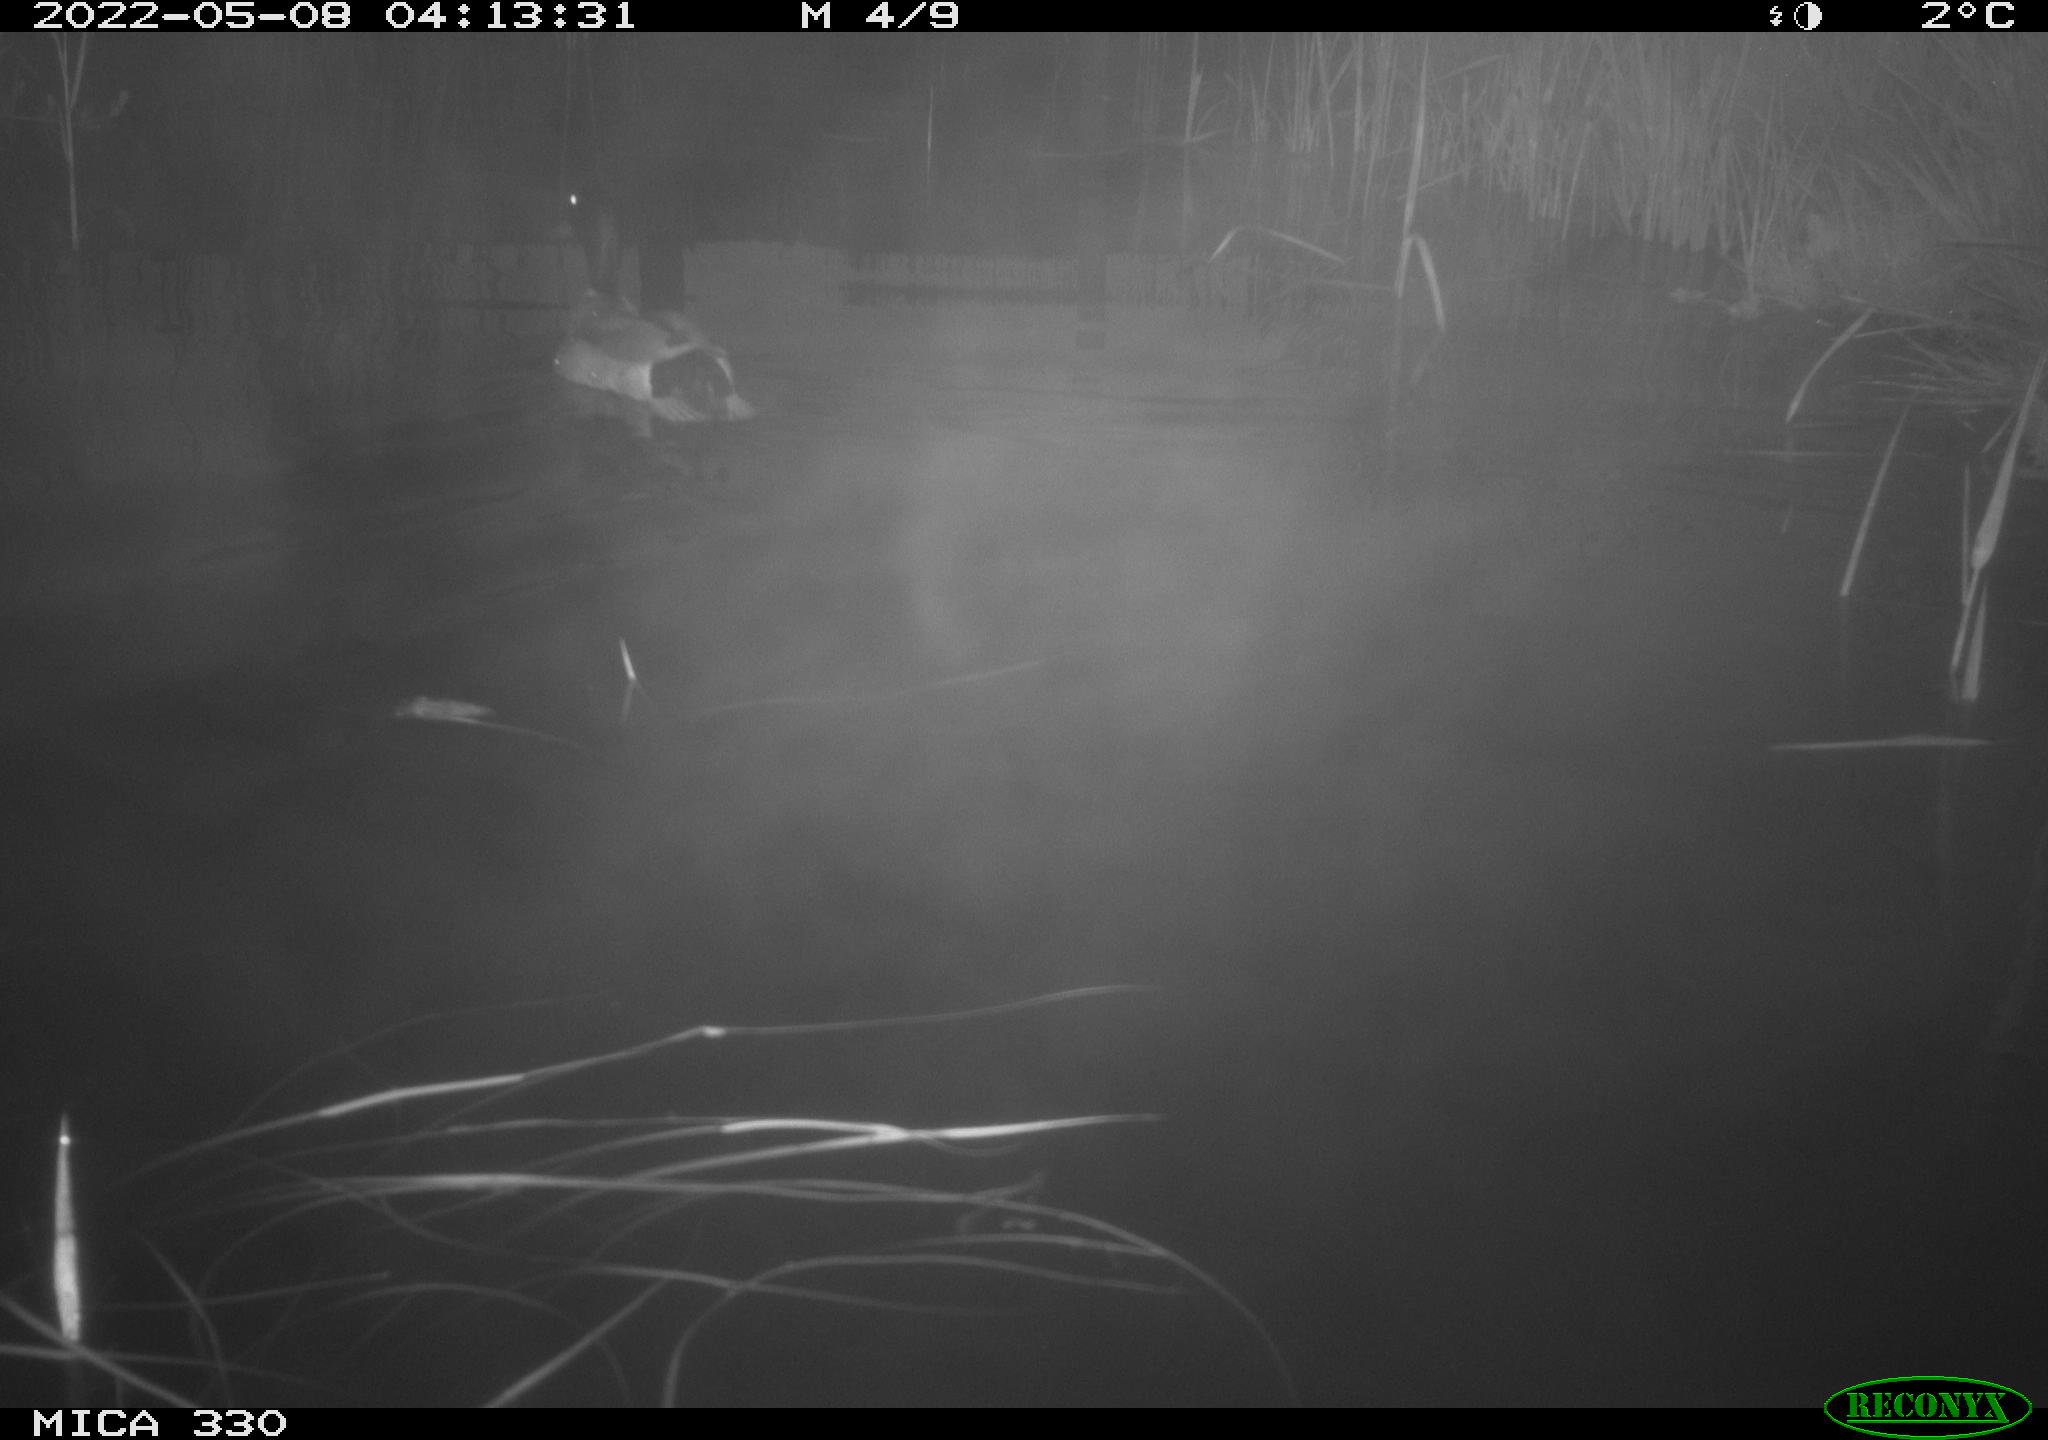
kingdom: Animalia
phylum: Chordata
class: Aves
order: Anseriformes
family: Anatidae
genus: Anas
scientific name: Anas platyrhynchos
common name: Mallard
